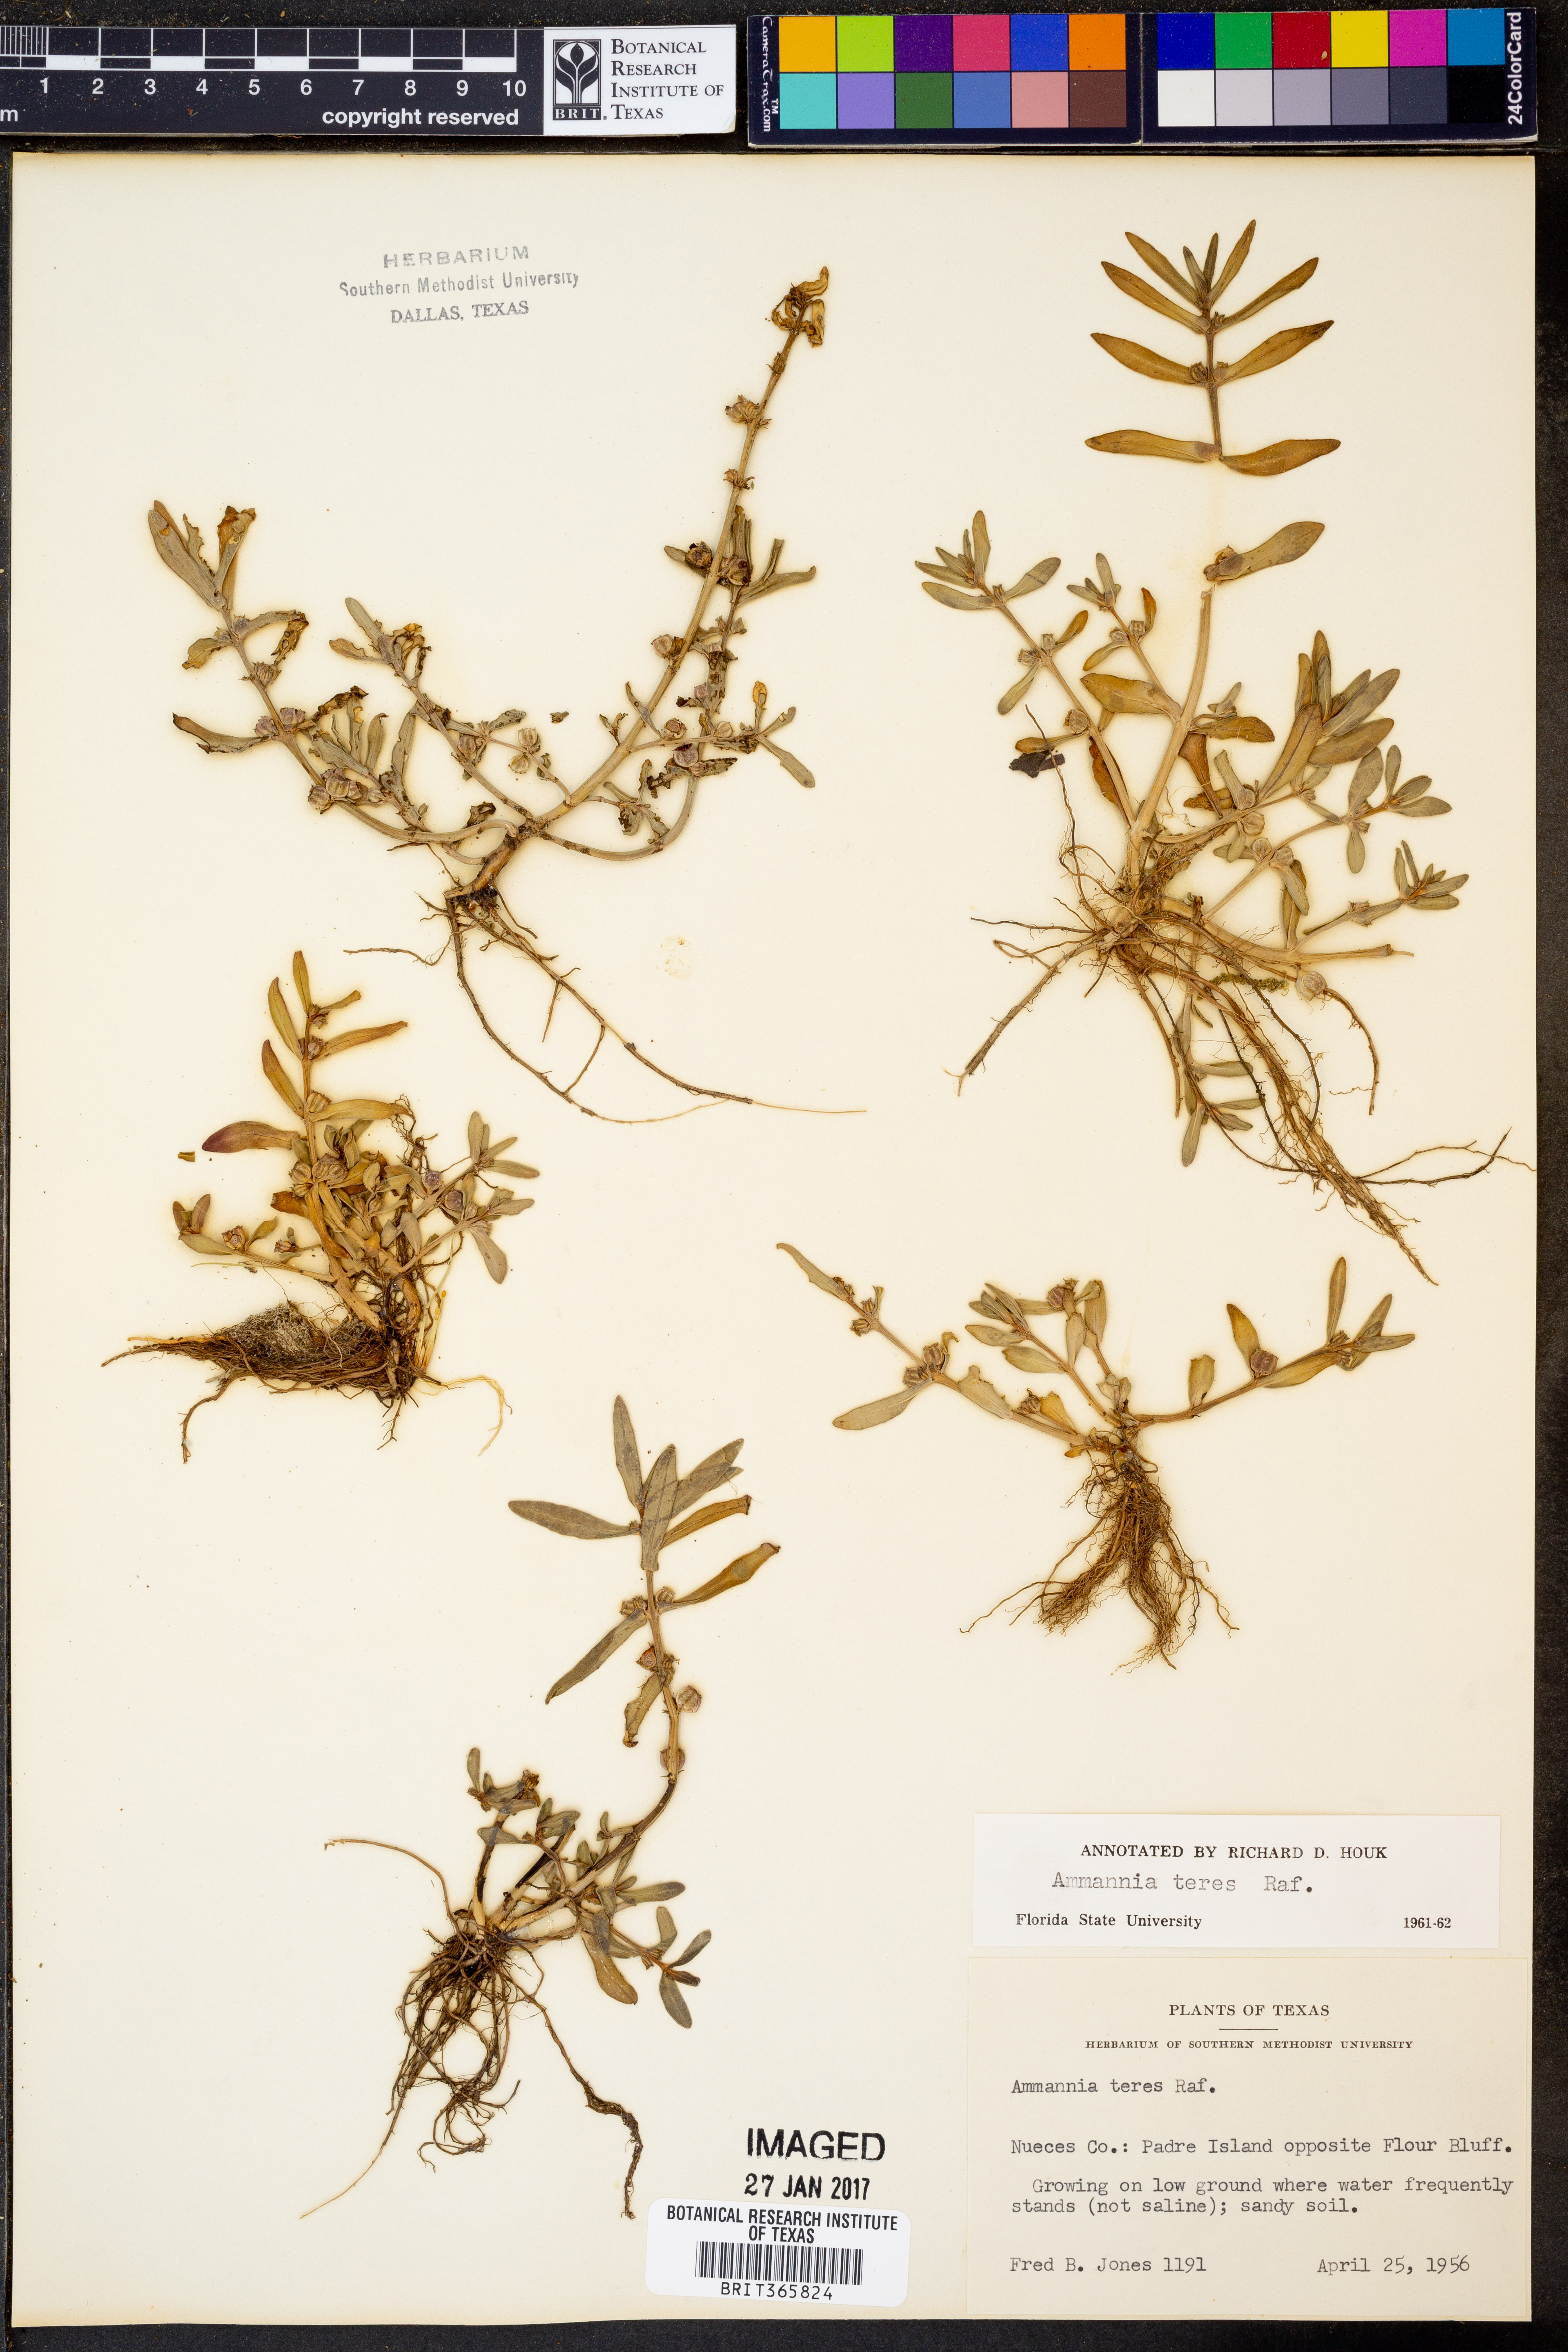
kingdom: Plantae
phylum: Tracheophyta
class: Magnoliopsida
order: Myrtales
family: Lythraceae
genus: Ammannia
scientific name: Ammannia coccinea
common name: Valley redstem
